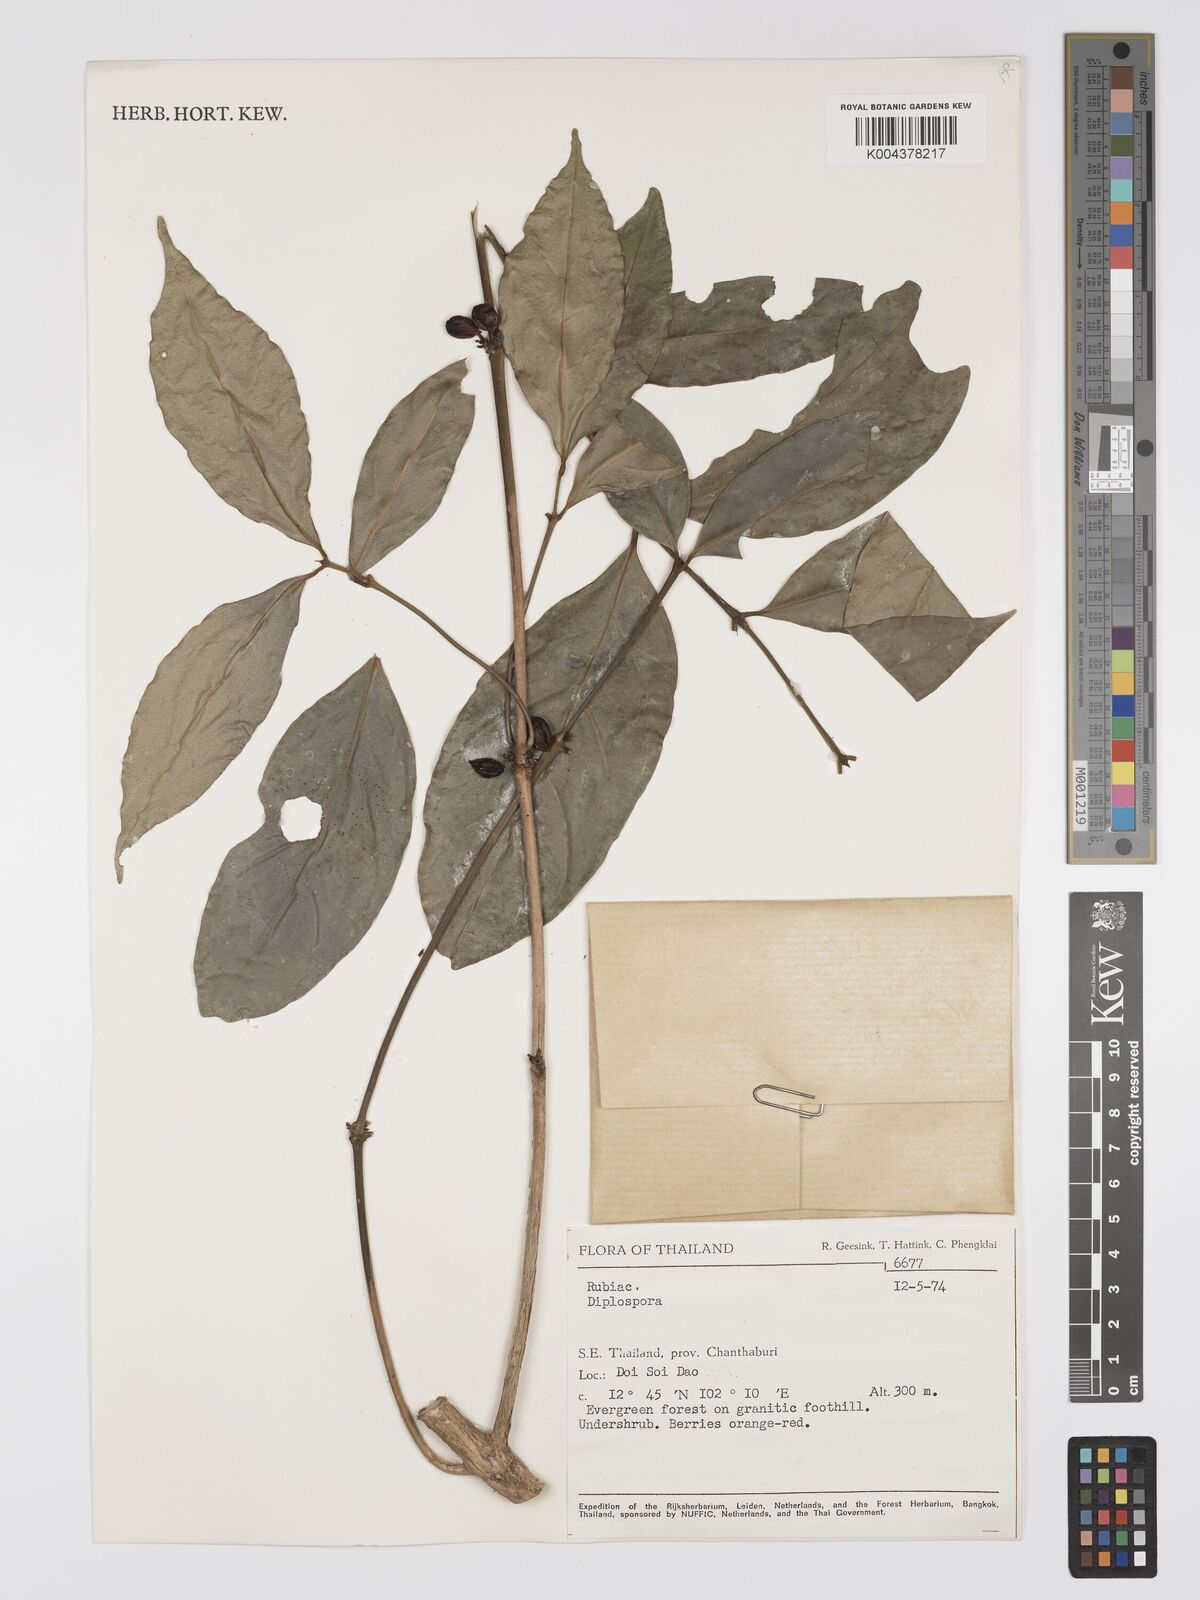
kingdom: Plantae
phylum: Tracheophyta
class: Magnoliopsida
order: Gentianales
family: Rubiaceae
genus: Diplospora
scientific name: Diplospora
